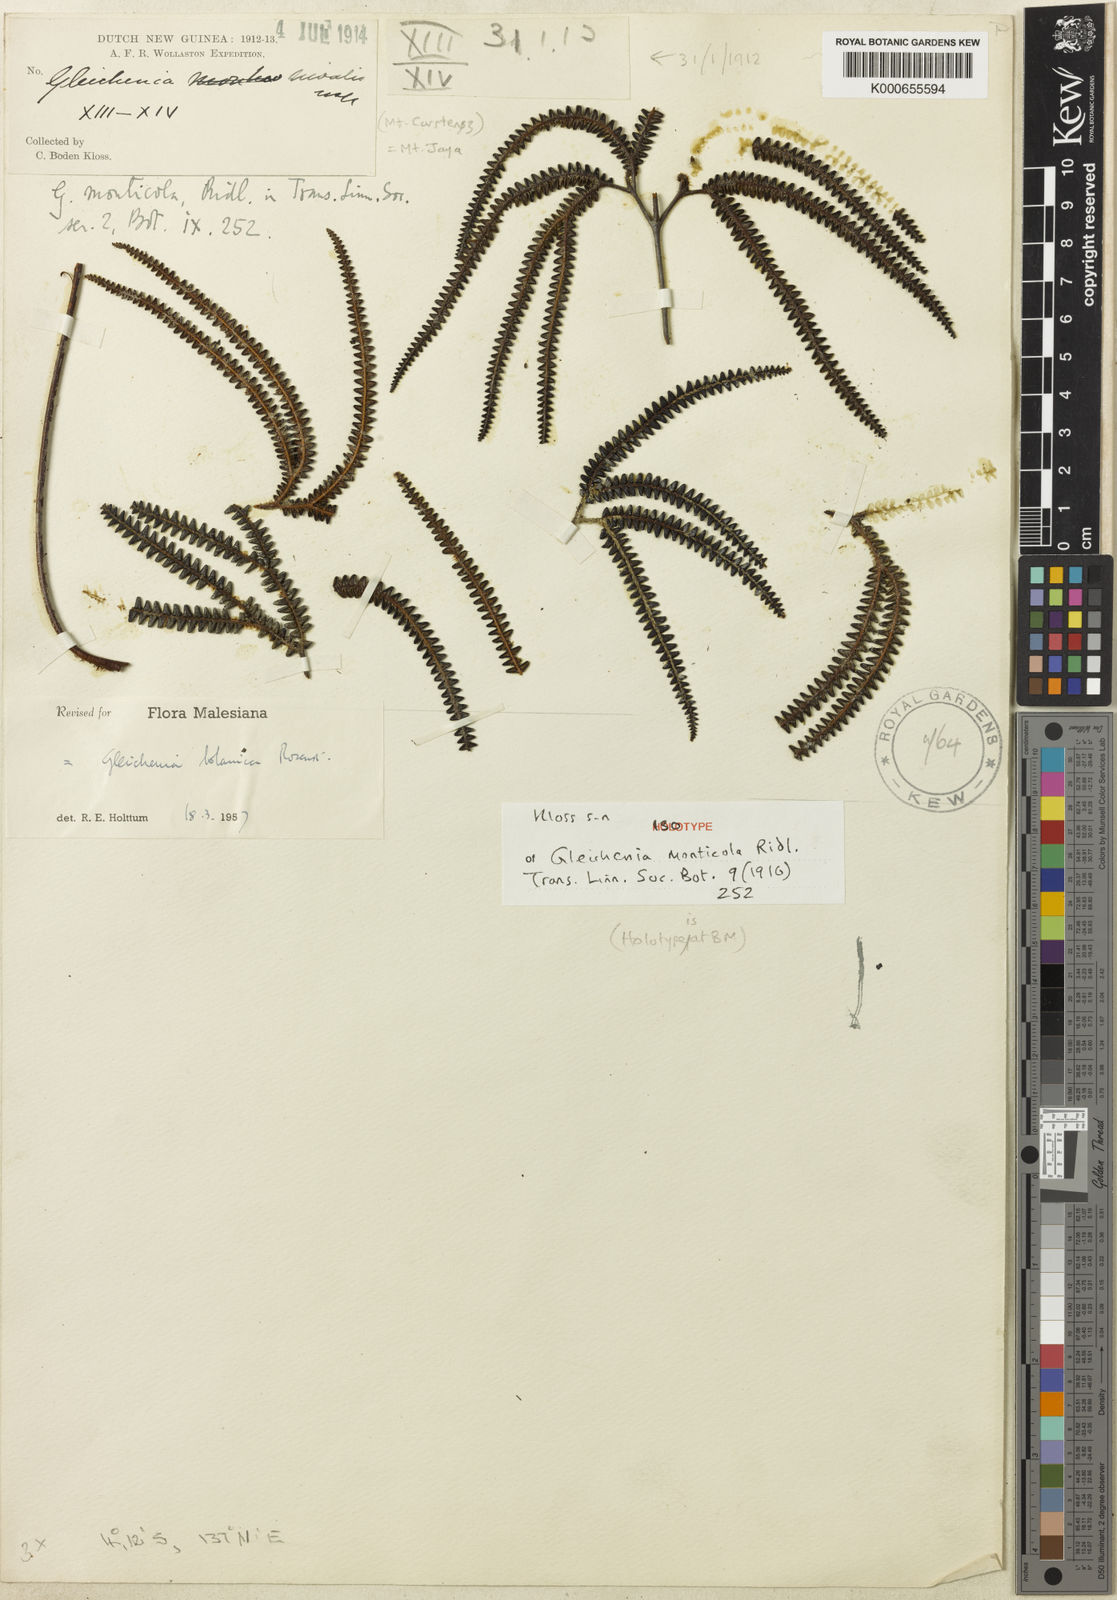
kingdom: Plantae
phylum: Tracheophyta
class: Polypodiopsida
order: Gleicheniales
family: Gleicheniaceae
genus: Sticherus
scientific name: Sticherus bolanicus
